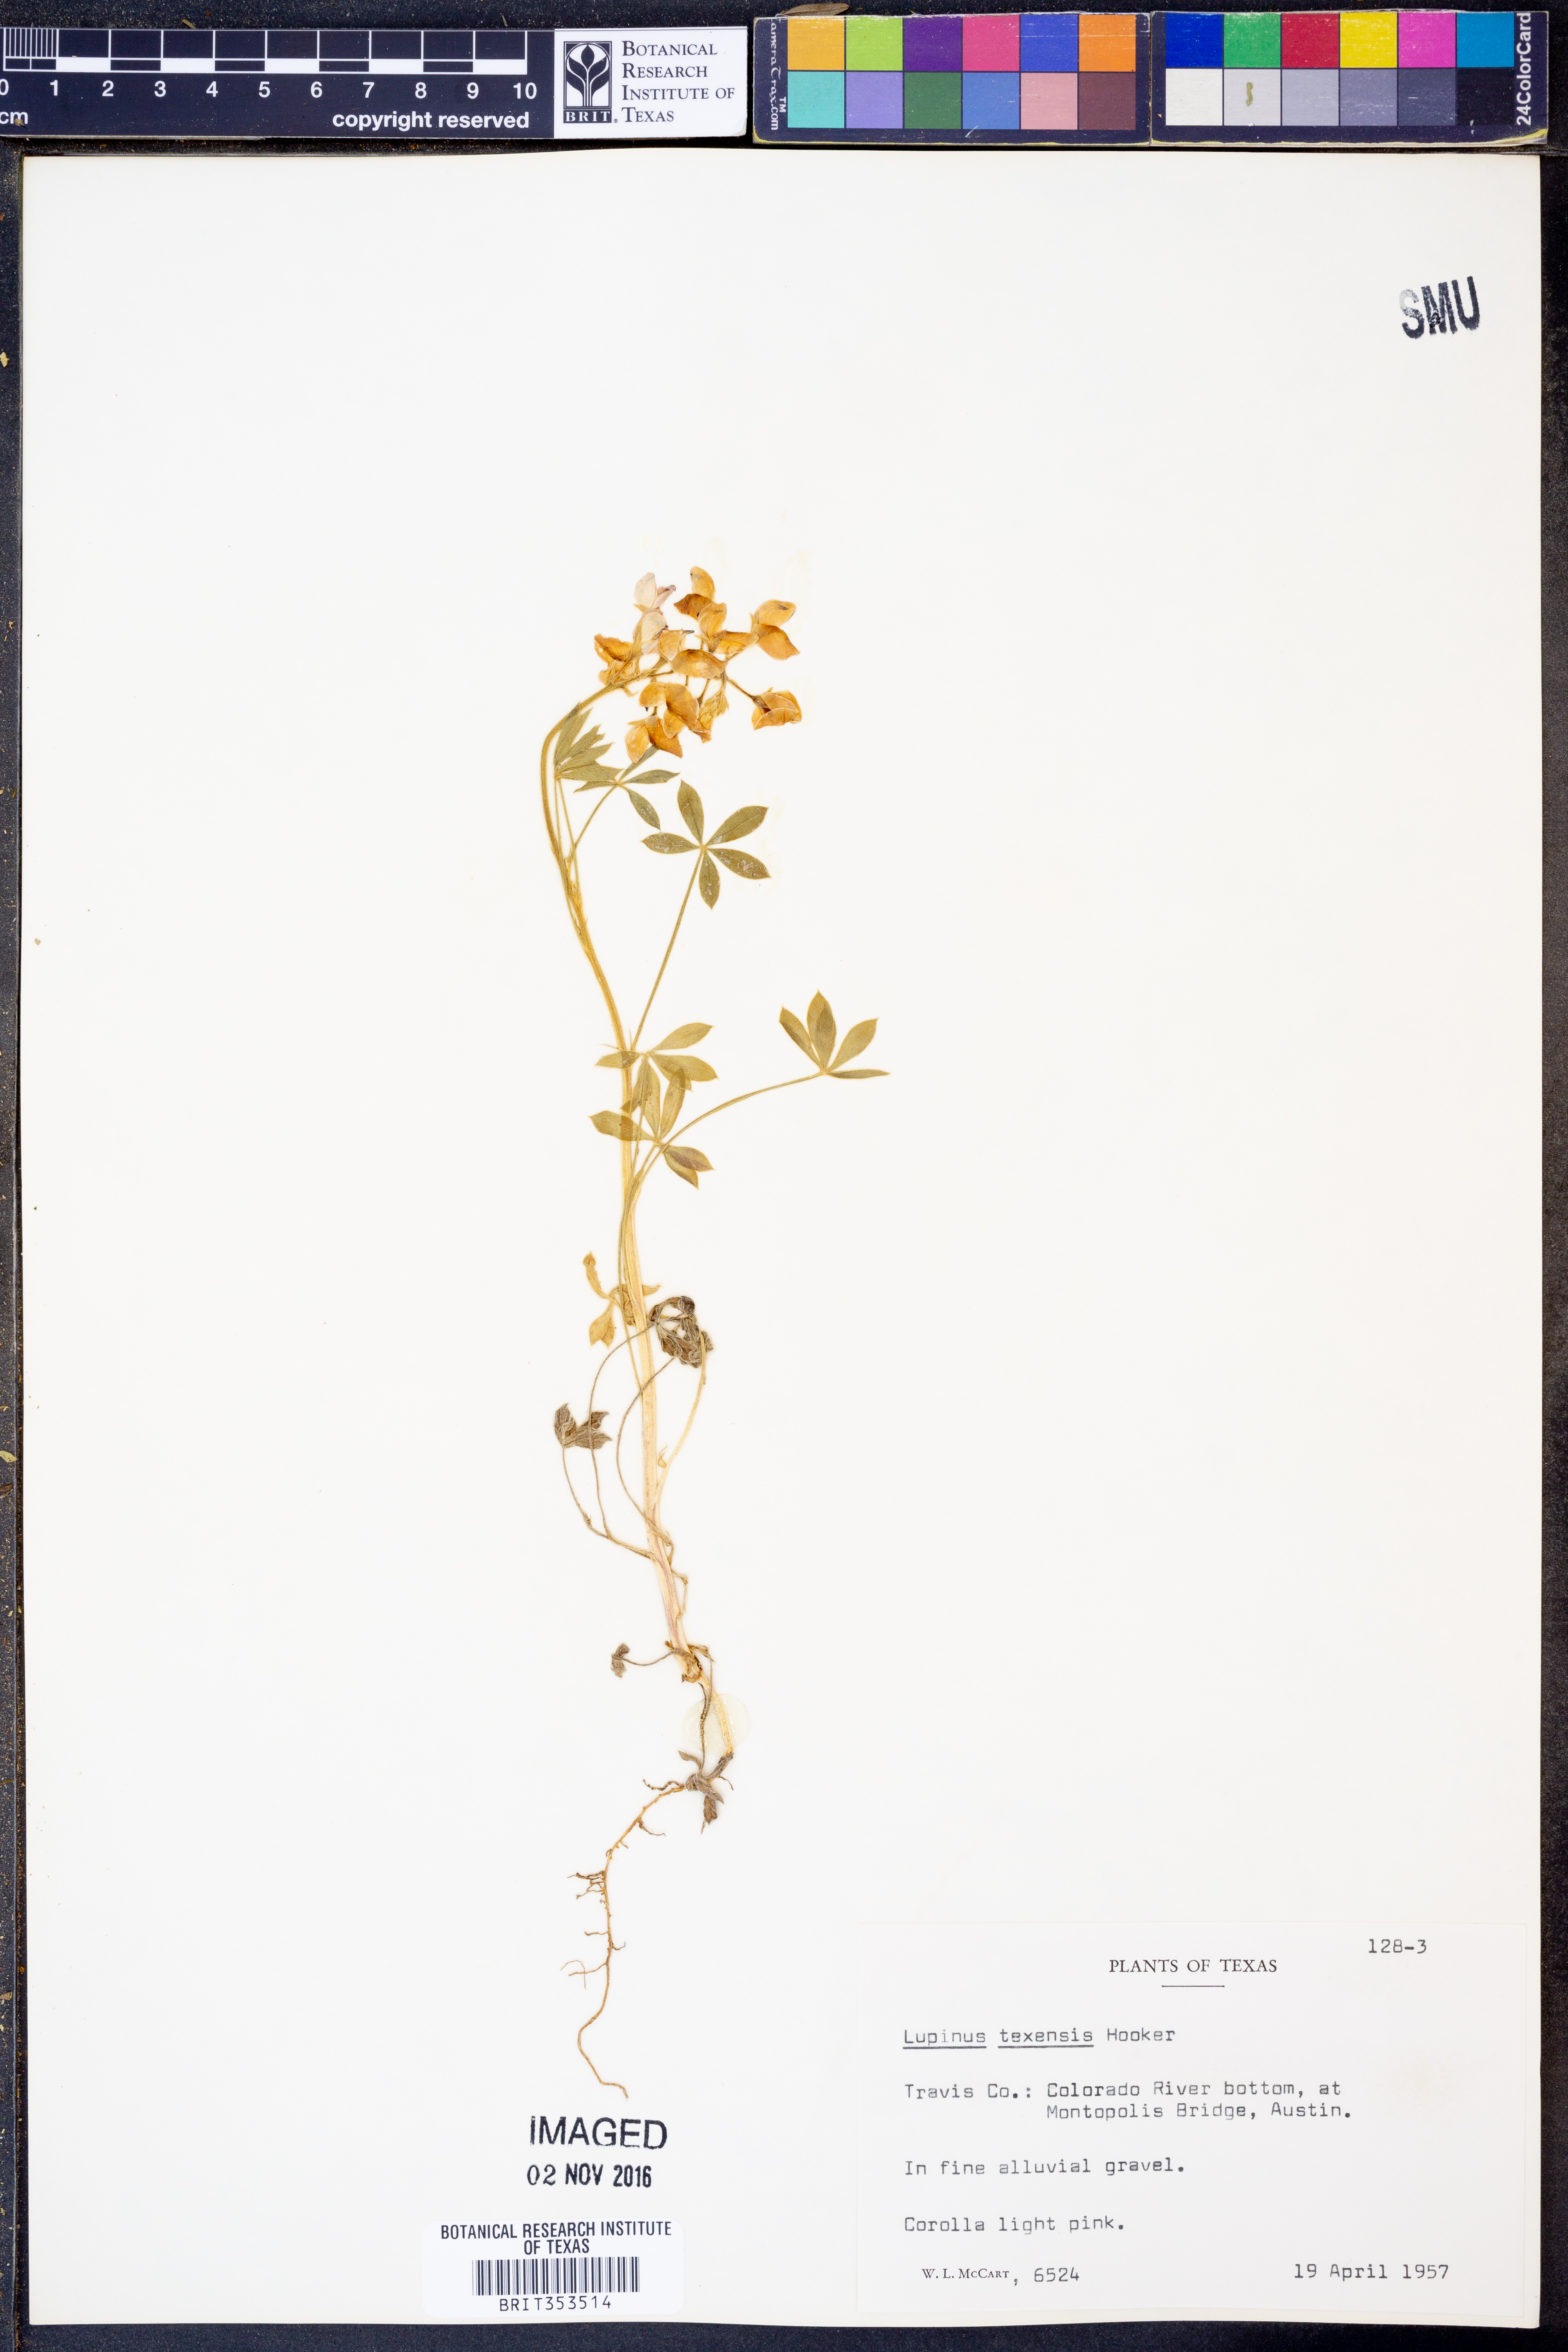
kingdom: Plantae
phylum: Tracheophyta
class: Magnoliopsida
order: Fabales
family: Fabaceae
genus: Lupinus
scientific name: Lupinus texensis
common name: Texas bluebonnet
